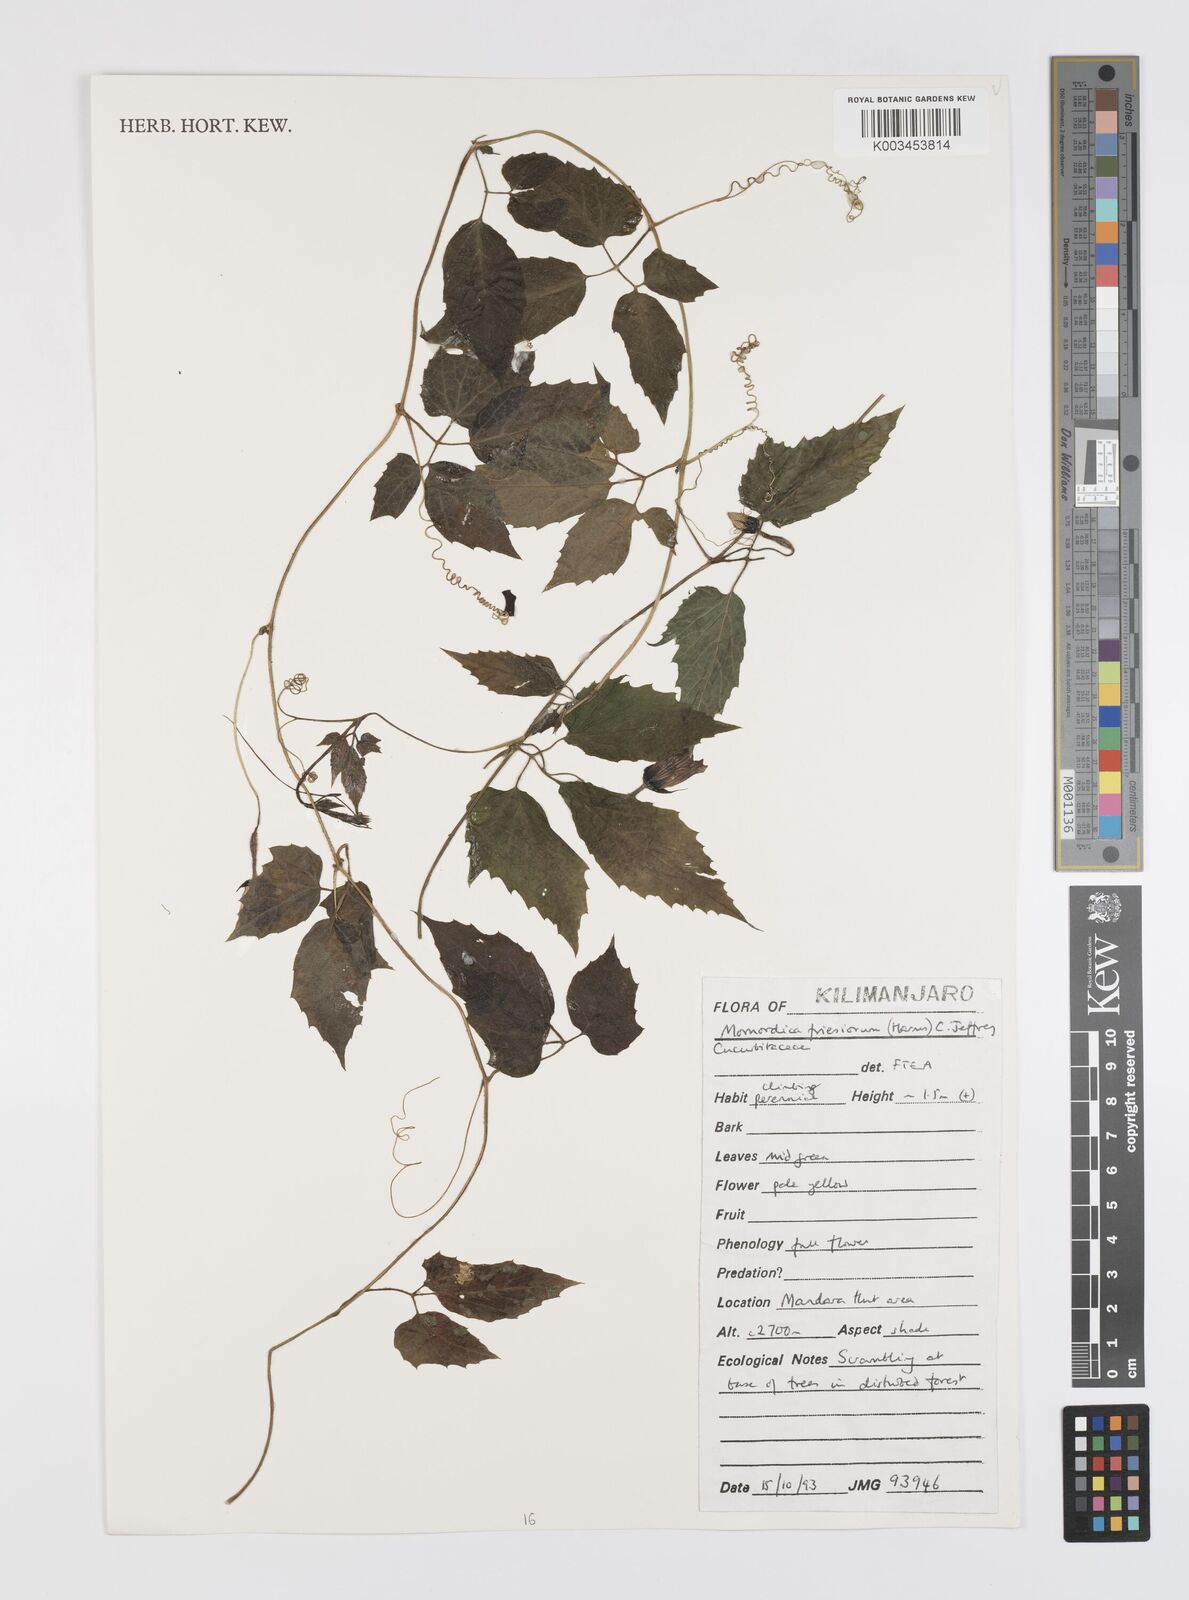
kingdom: Plantae
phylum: Tracheophyta
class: Magnoliopsida
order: Cucurbitales
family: Cucurbitaceae
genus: Momordica
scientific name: Momordica friesiorum
